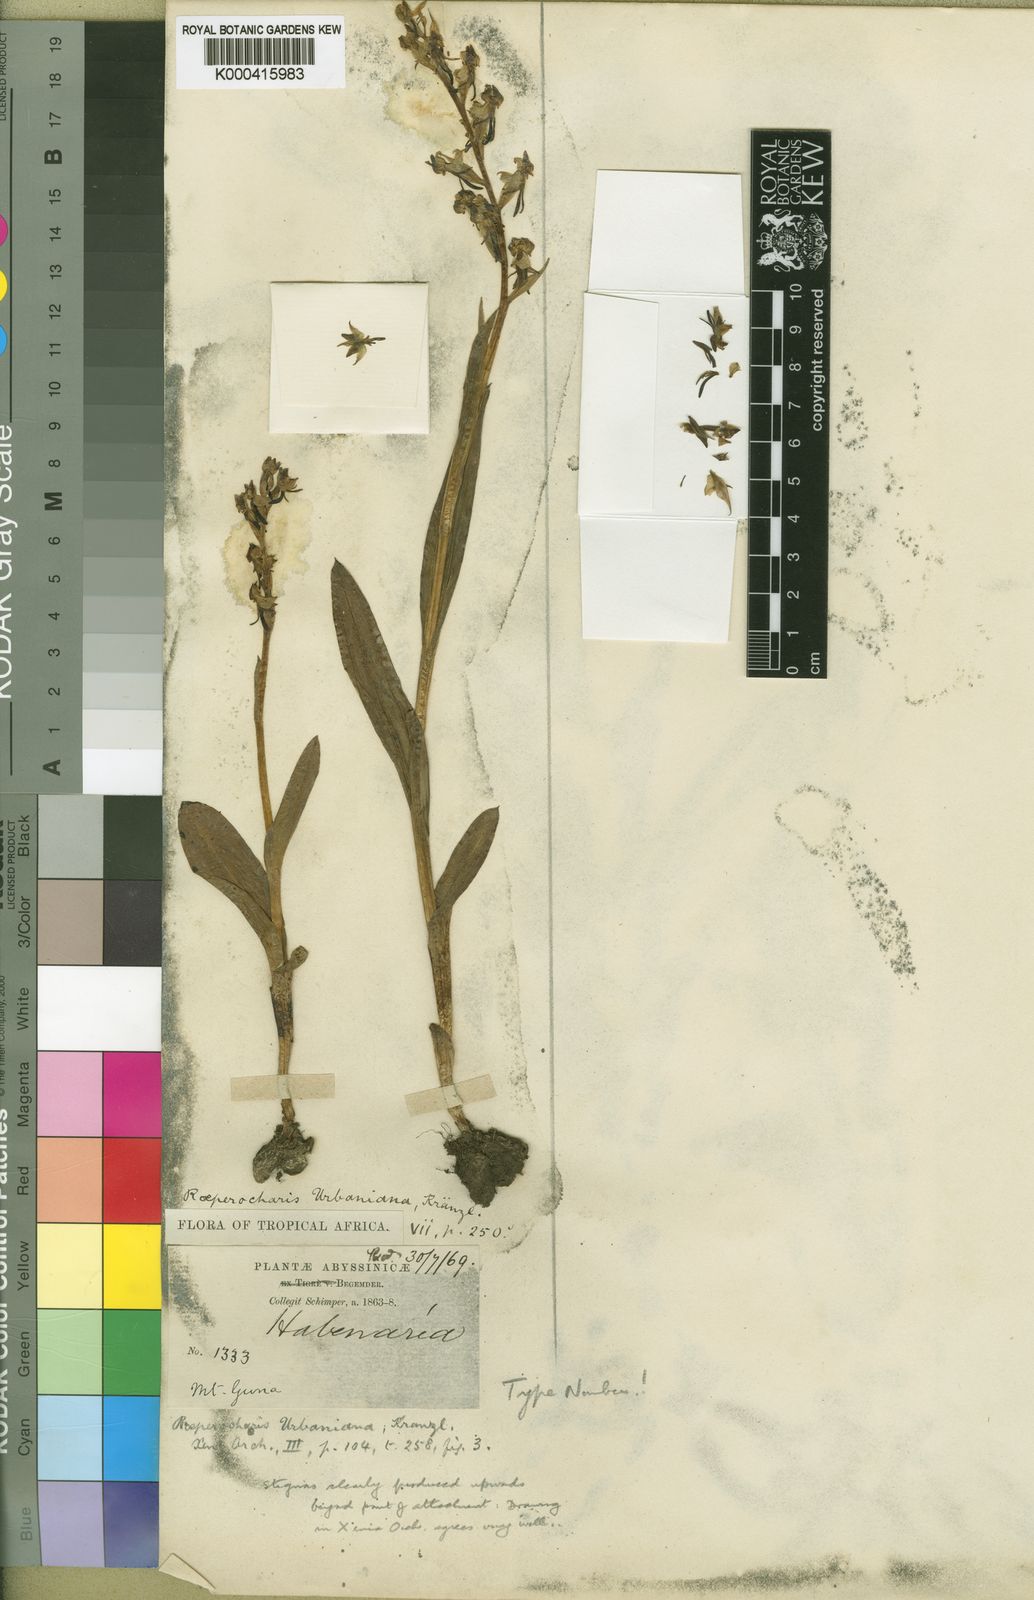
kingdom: Plantae
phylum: Tracheophyta
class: Liliopsida
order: Asparagales
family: Orchidaceae
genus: Roeperocharis
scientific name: Roeperocharis urbaniana
